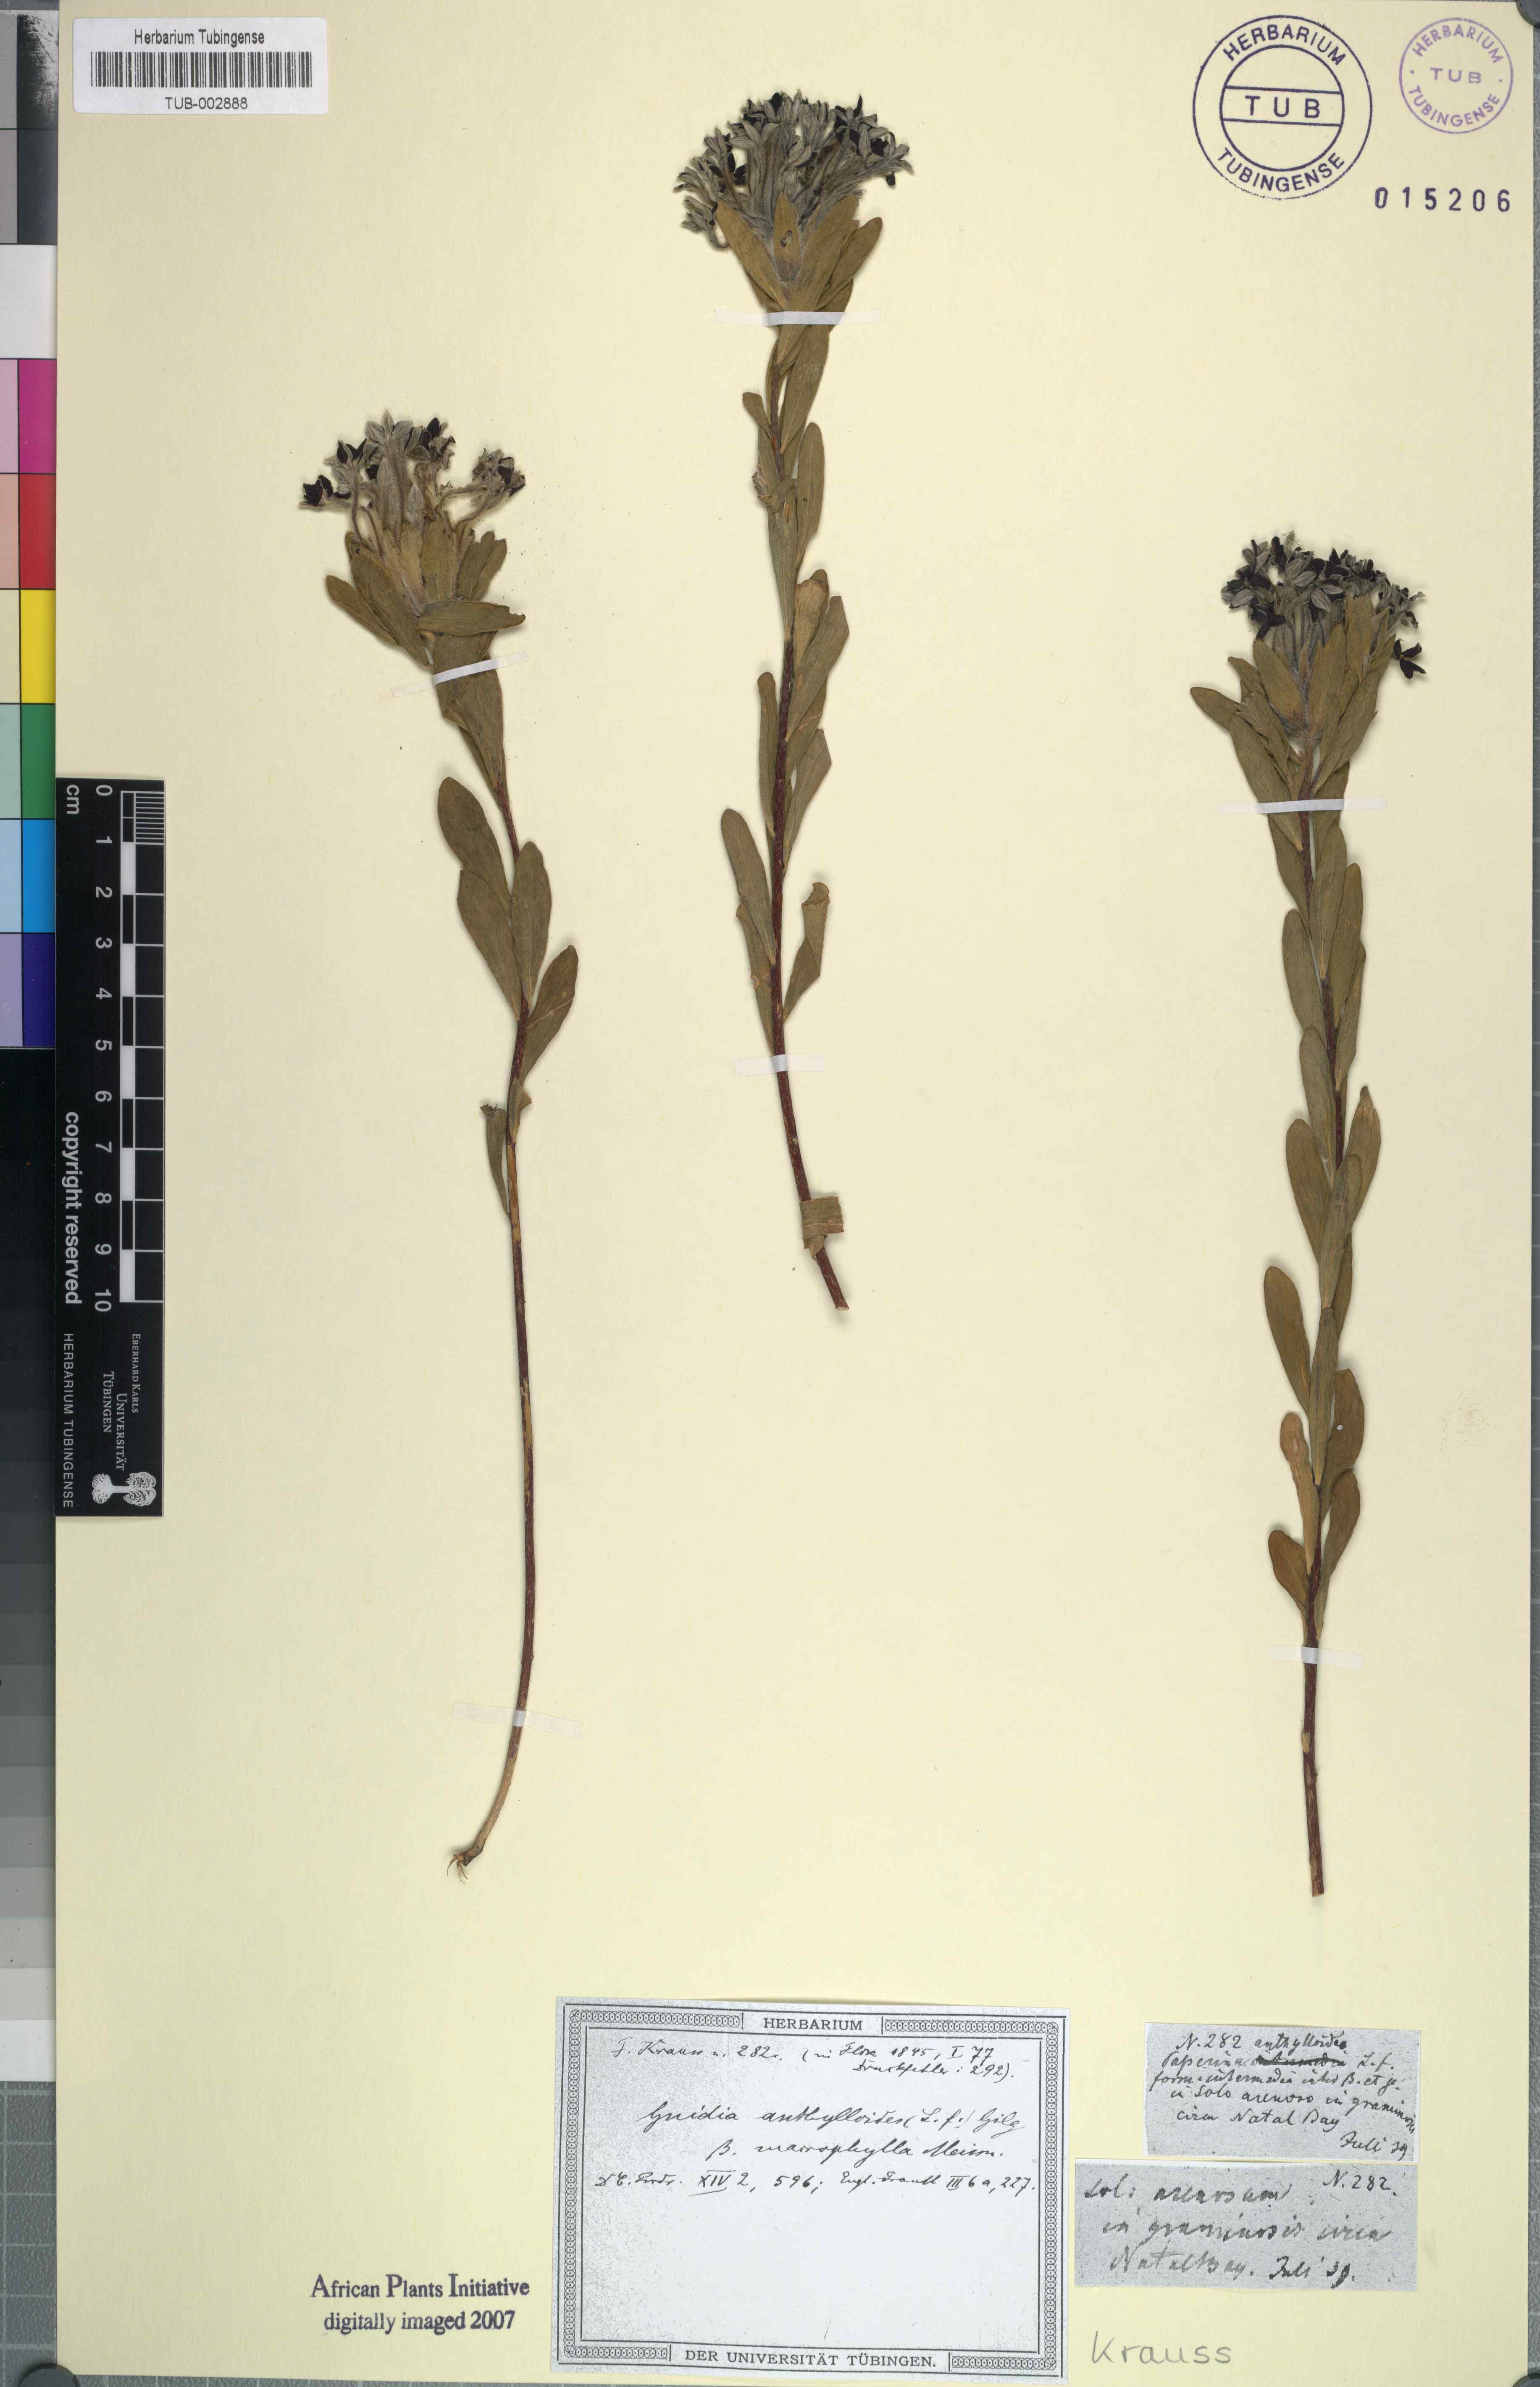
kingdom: Plantae
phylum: Tracheophyta
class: Magnoliopsida
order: Malvales
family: Thymelaeaceae
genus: Gnidia
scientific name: Gnidia anthylloides
